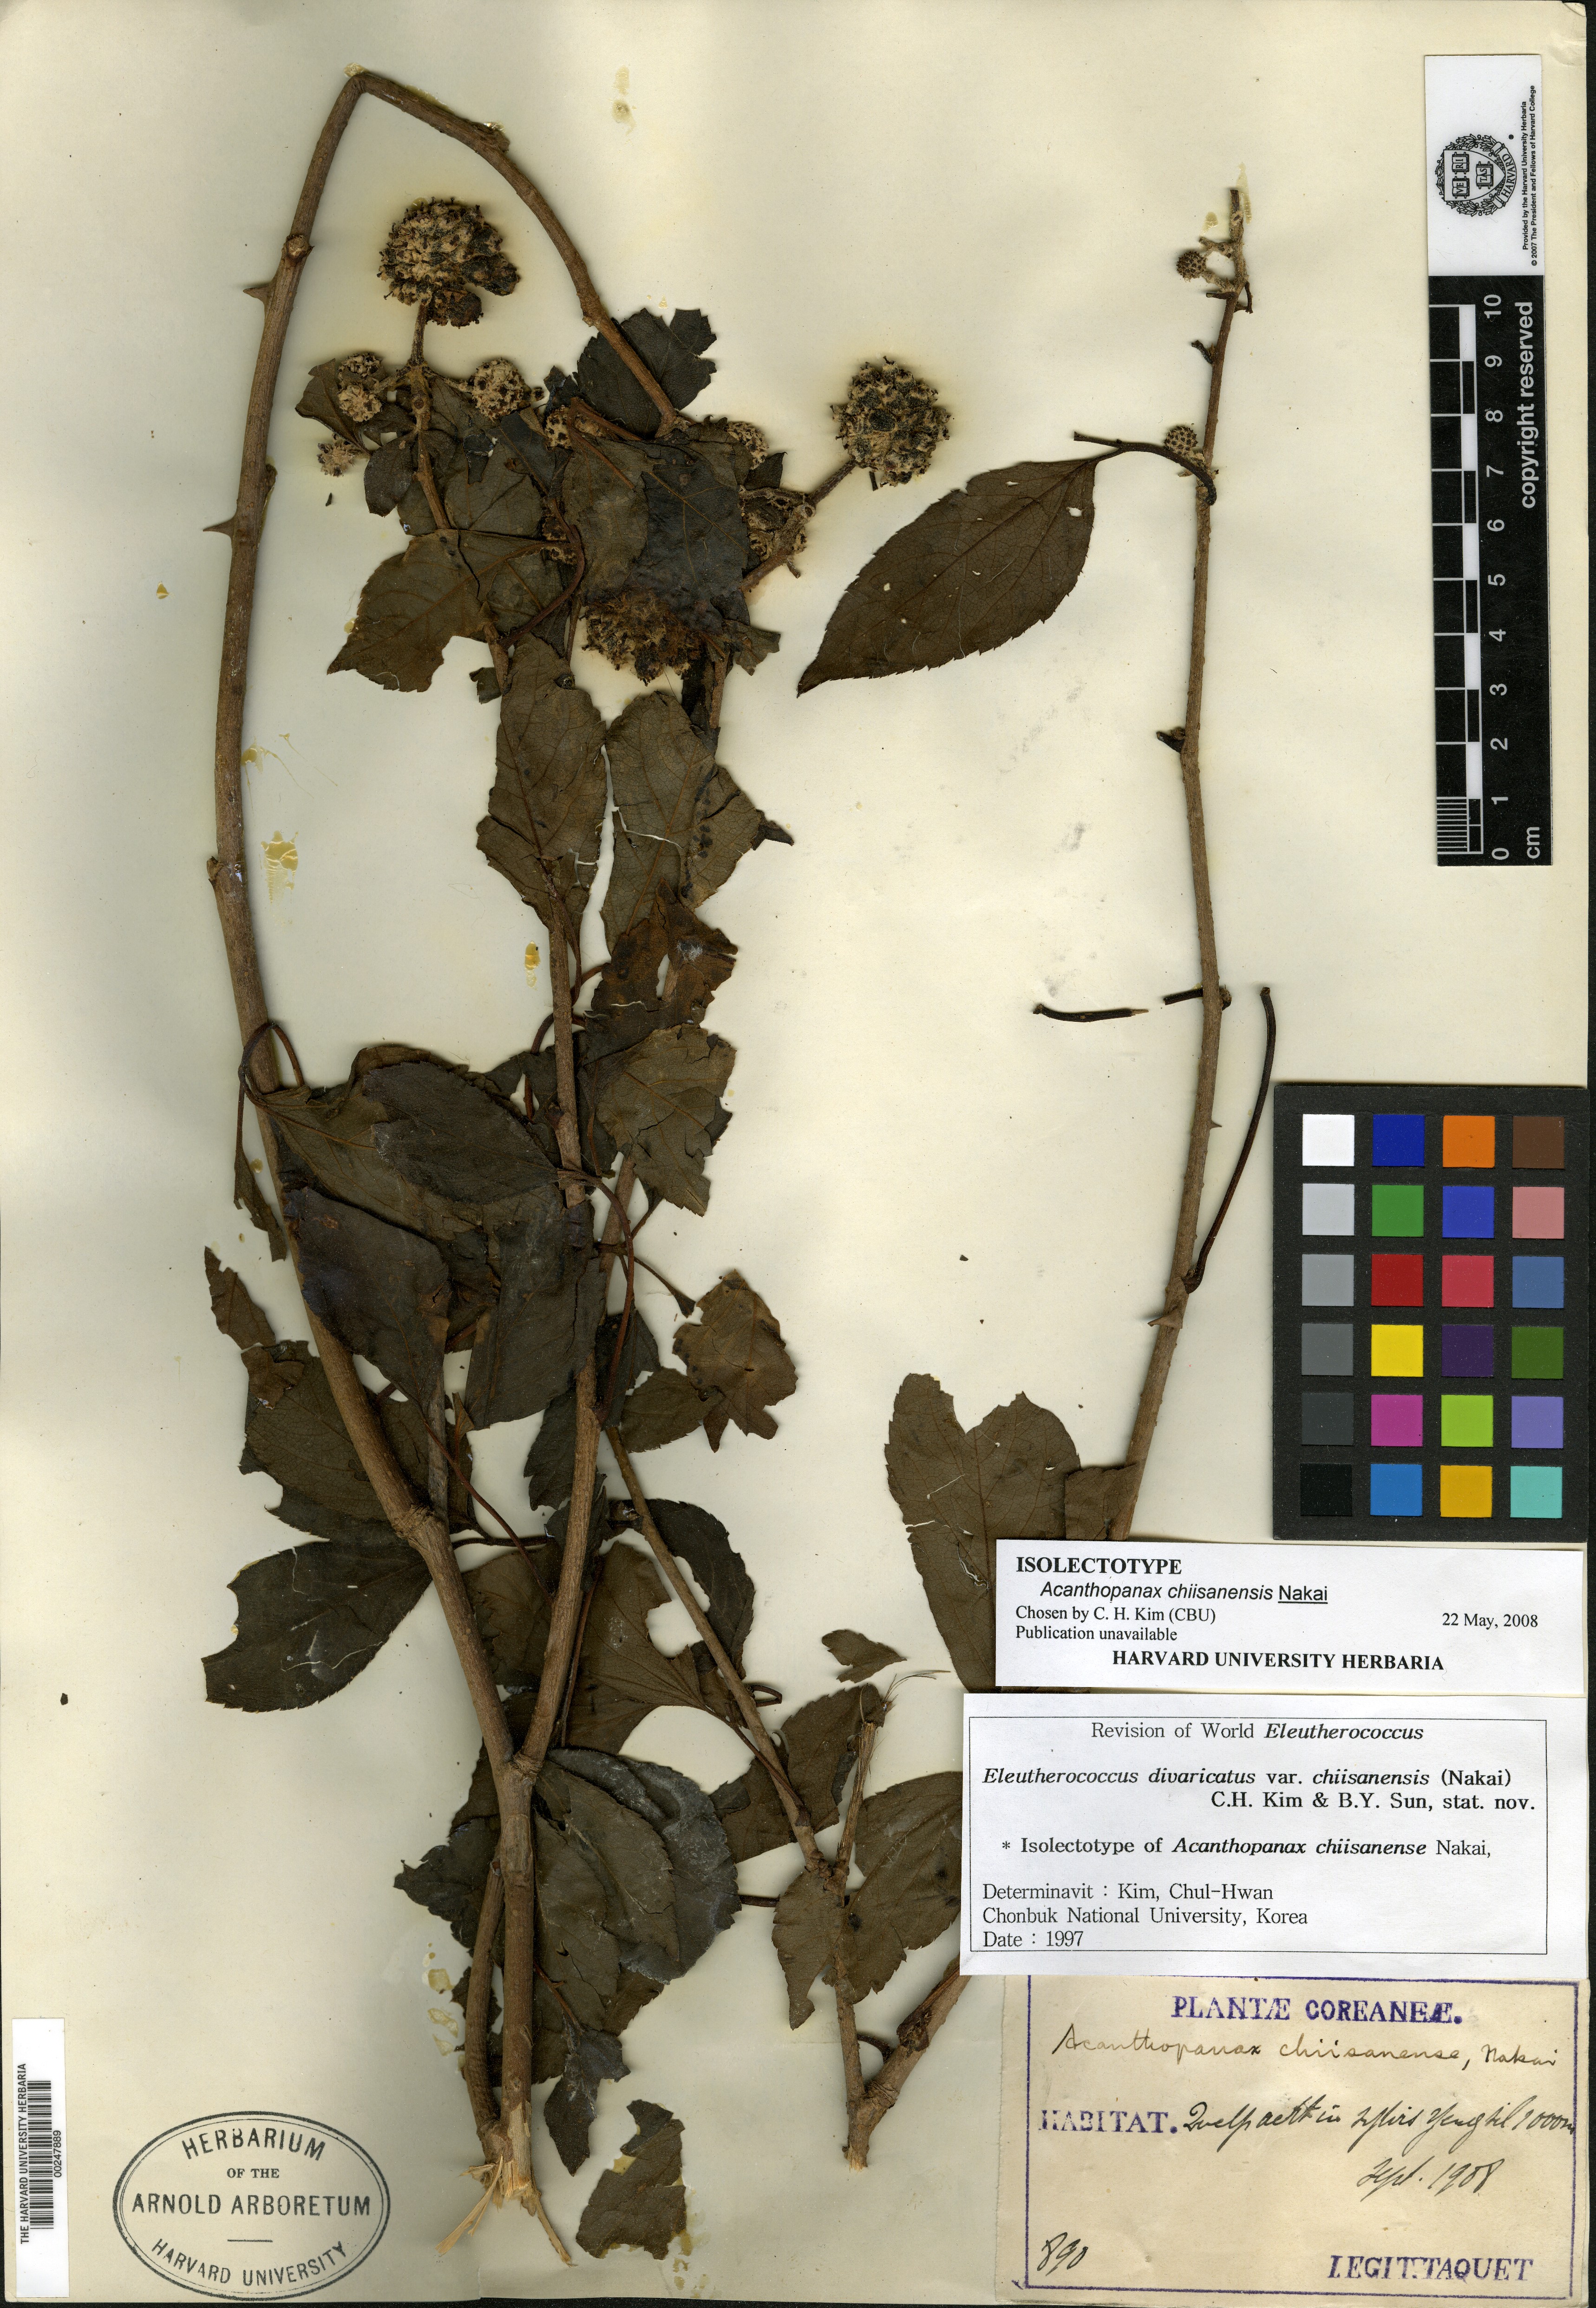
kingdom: Plantae
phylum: Tracheophyta
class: Magnoliopsida
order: Apiales
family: Araliaceae
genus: Eleutherococcus
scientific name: Eleutherococcus divaricatus
